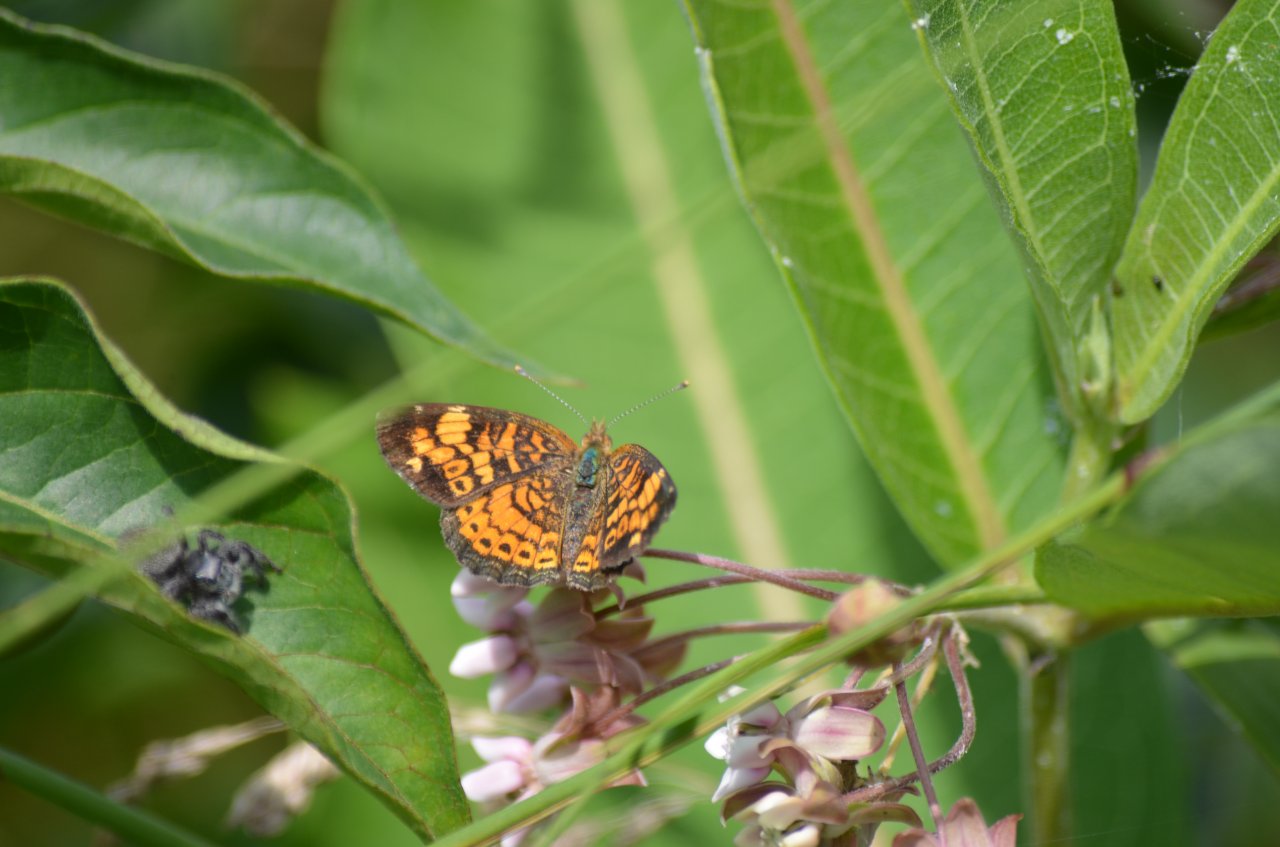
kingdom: Animalia
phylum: Arthropoda
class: Insecta
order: Lepidoptera
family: Nymphalidae
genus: Phyciodes
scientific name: Phyciodes tharos
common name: Northern Crescent
